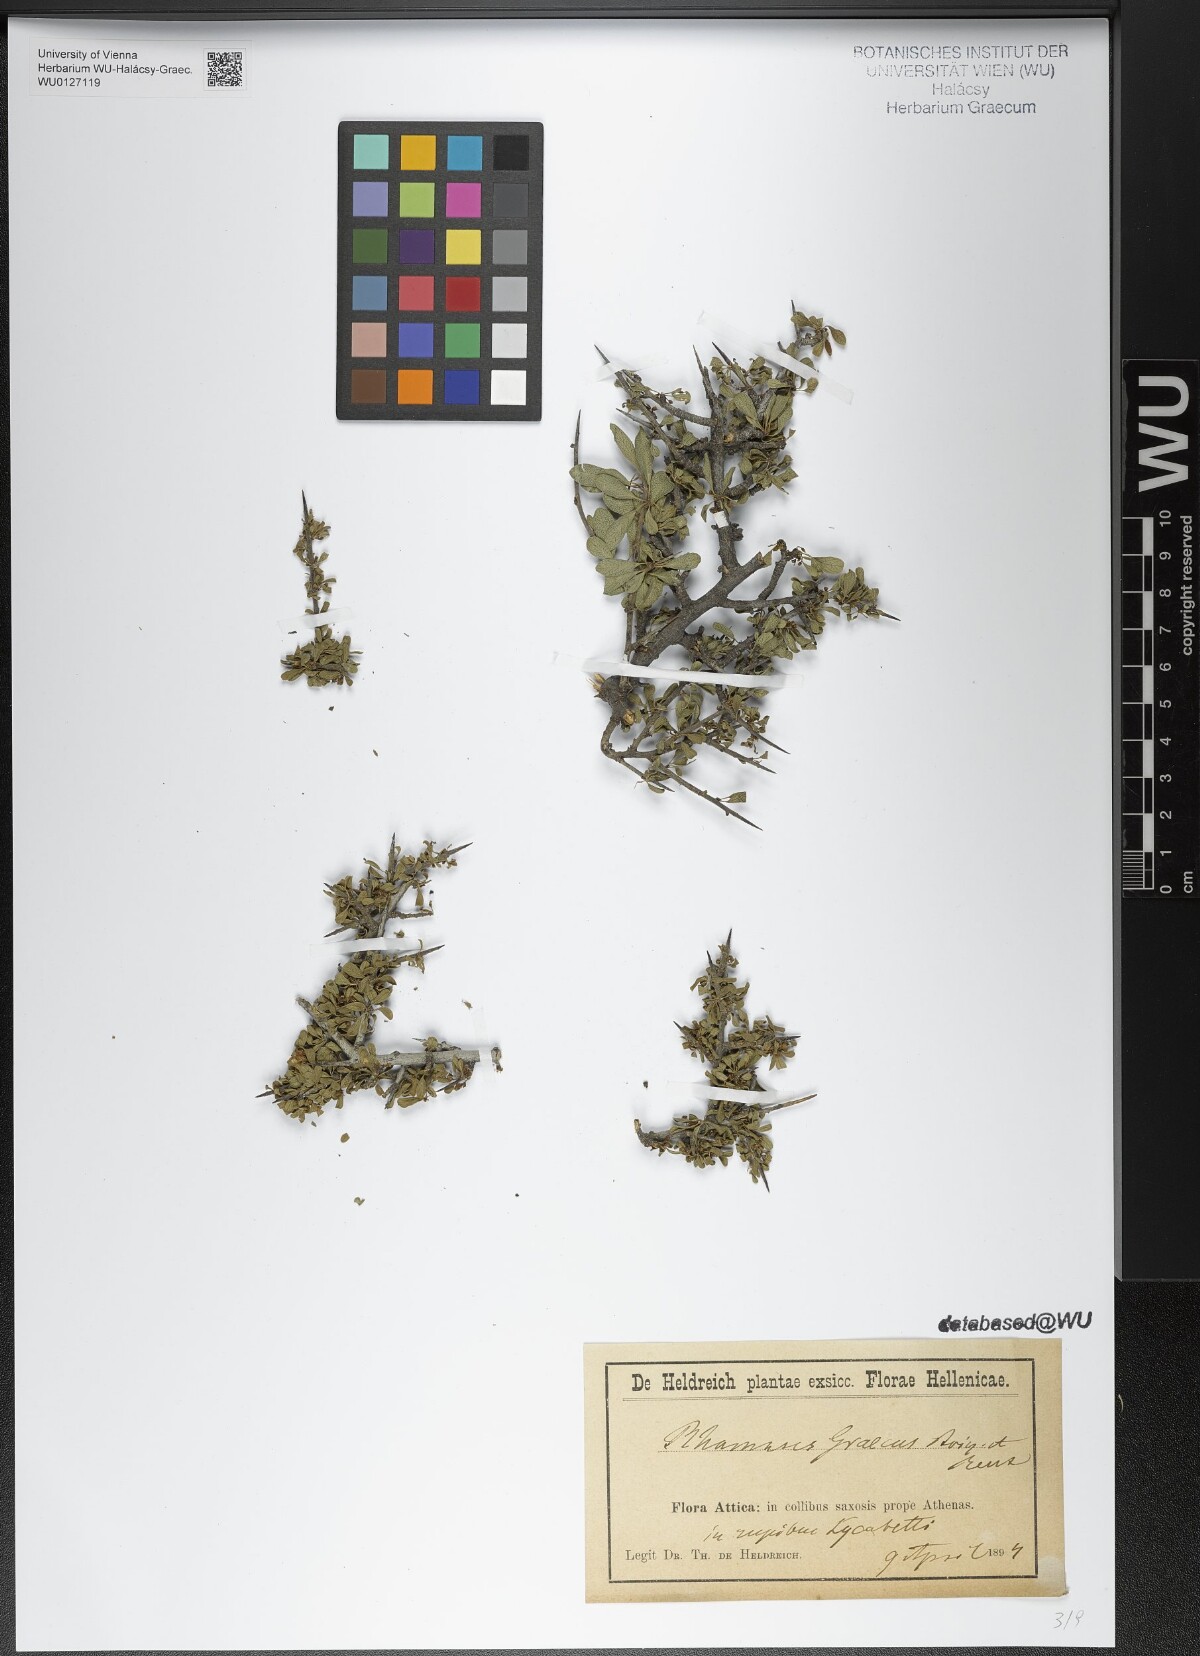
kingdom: Plantae
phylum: Tracheophyta
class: Magnoliopsida
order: Rosales
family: Rhamnaceae
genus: Rhamnus
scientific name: Rhamnus
